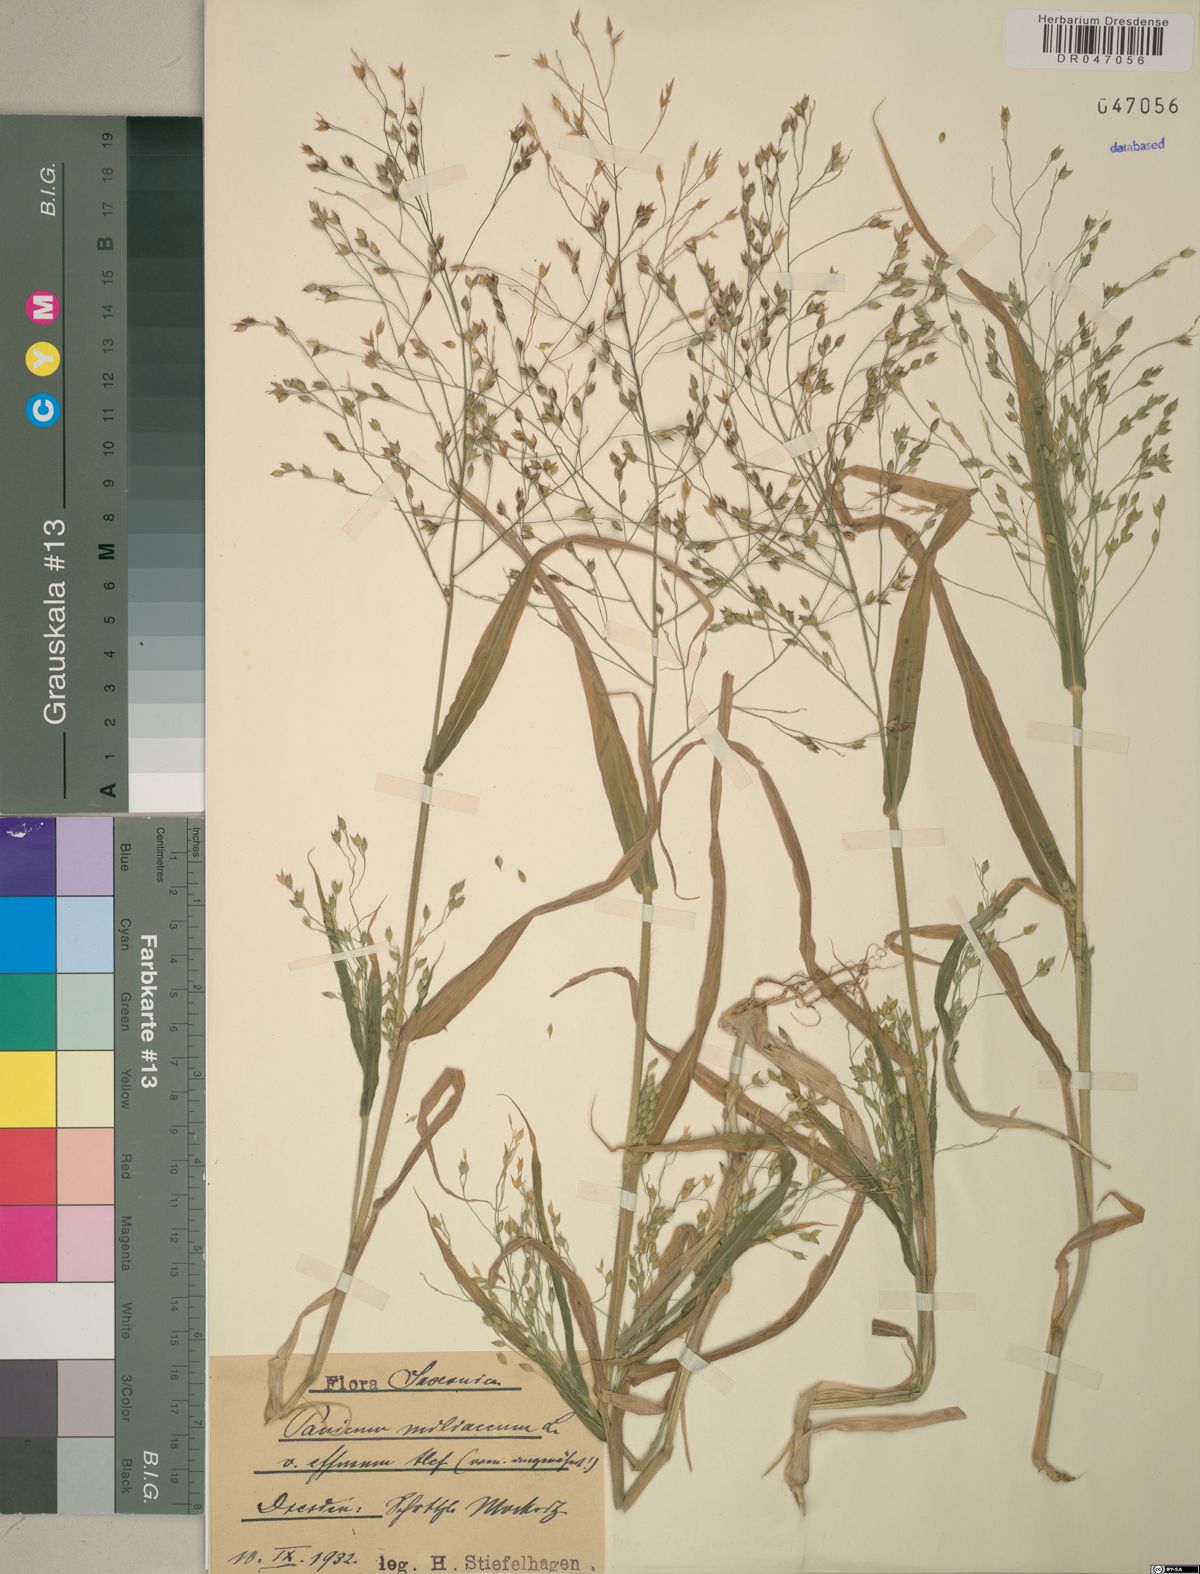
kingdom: Plantae
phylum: Tracheophyta
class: Liliopsida
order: Poales
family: Poaceae
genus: Panicum
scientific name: Panicum miliaceum
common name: Common millet
